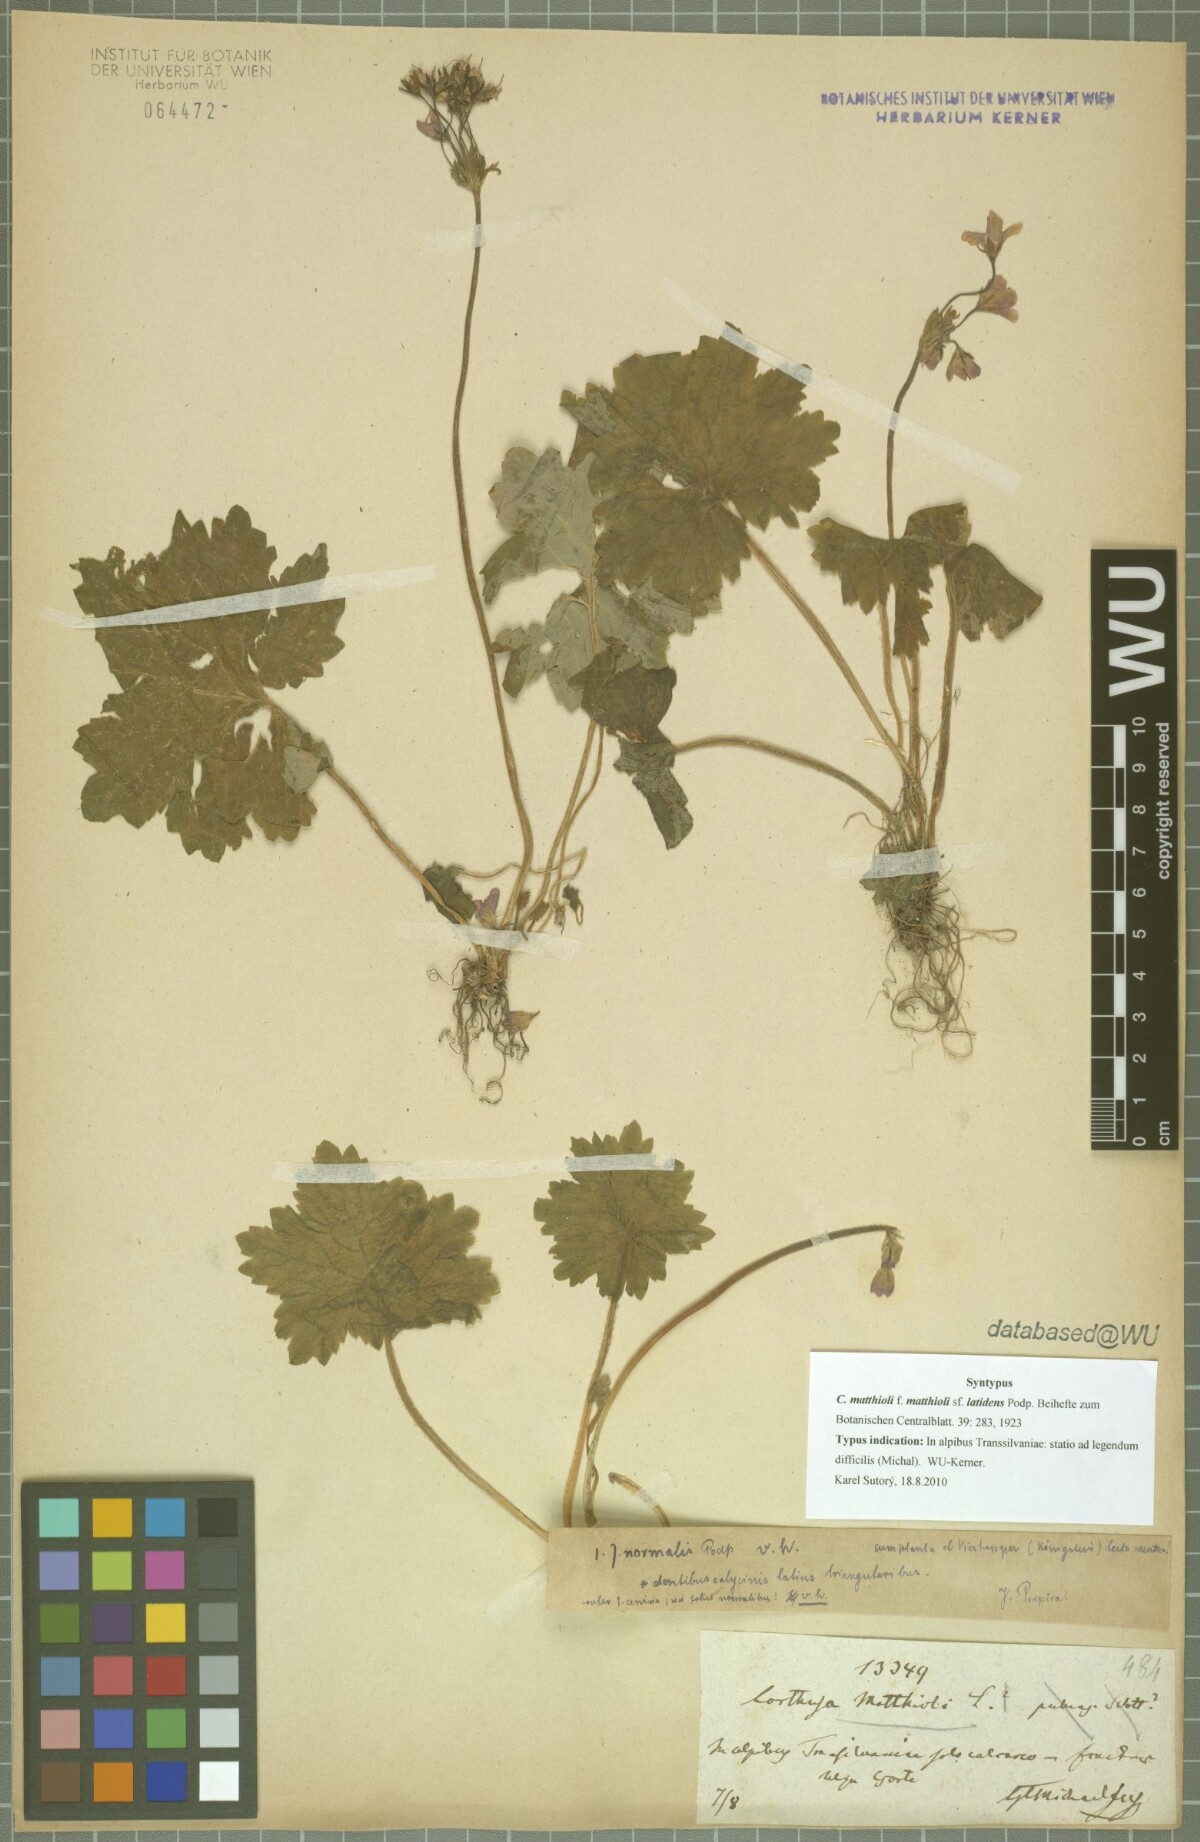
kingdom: Plantae
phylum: Tracheophyta
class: Magnoliopsida
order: Ericales
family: Primulaceae
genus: Primula
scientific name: Primula matthioli
